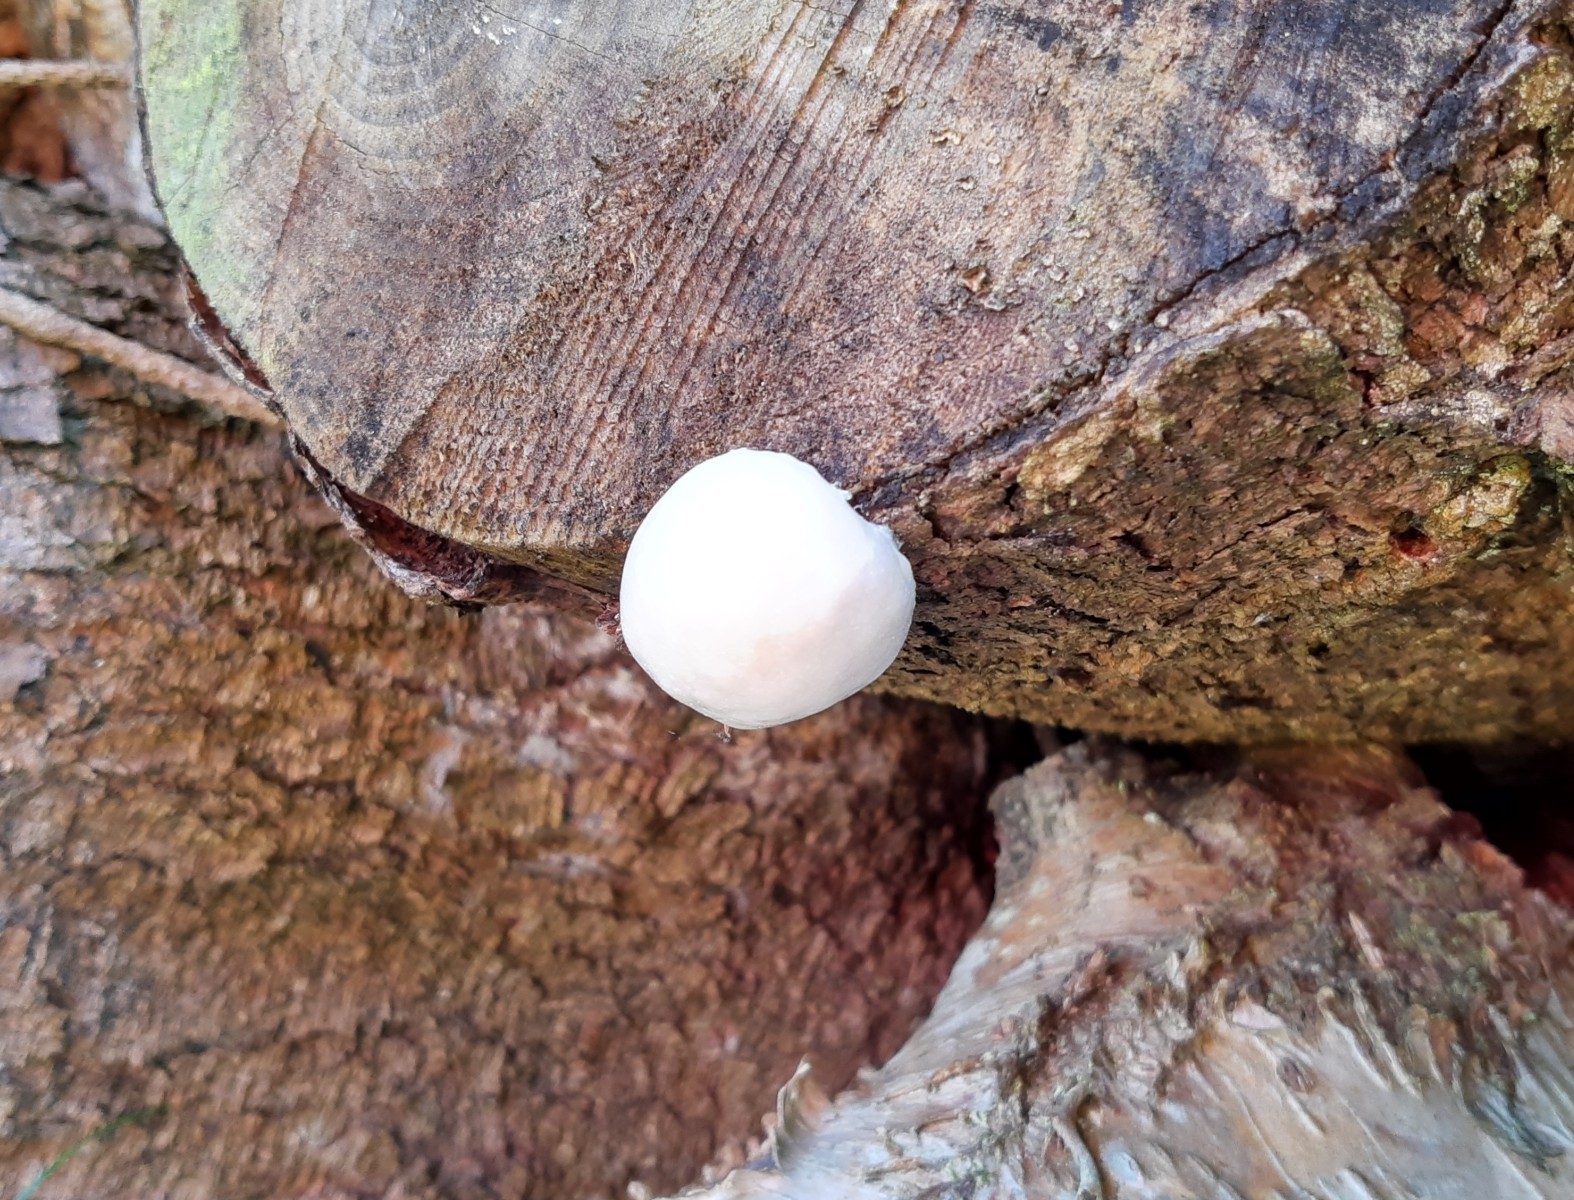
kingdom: Protozoa
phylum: Mycetozoa
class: Myxomycetes
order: Cribrariales
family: Tubiferaceae
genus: Reticularia
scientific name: Reticularia lycoperdon
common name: skinnende støvpude
